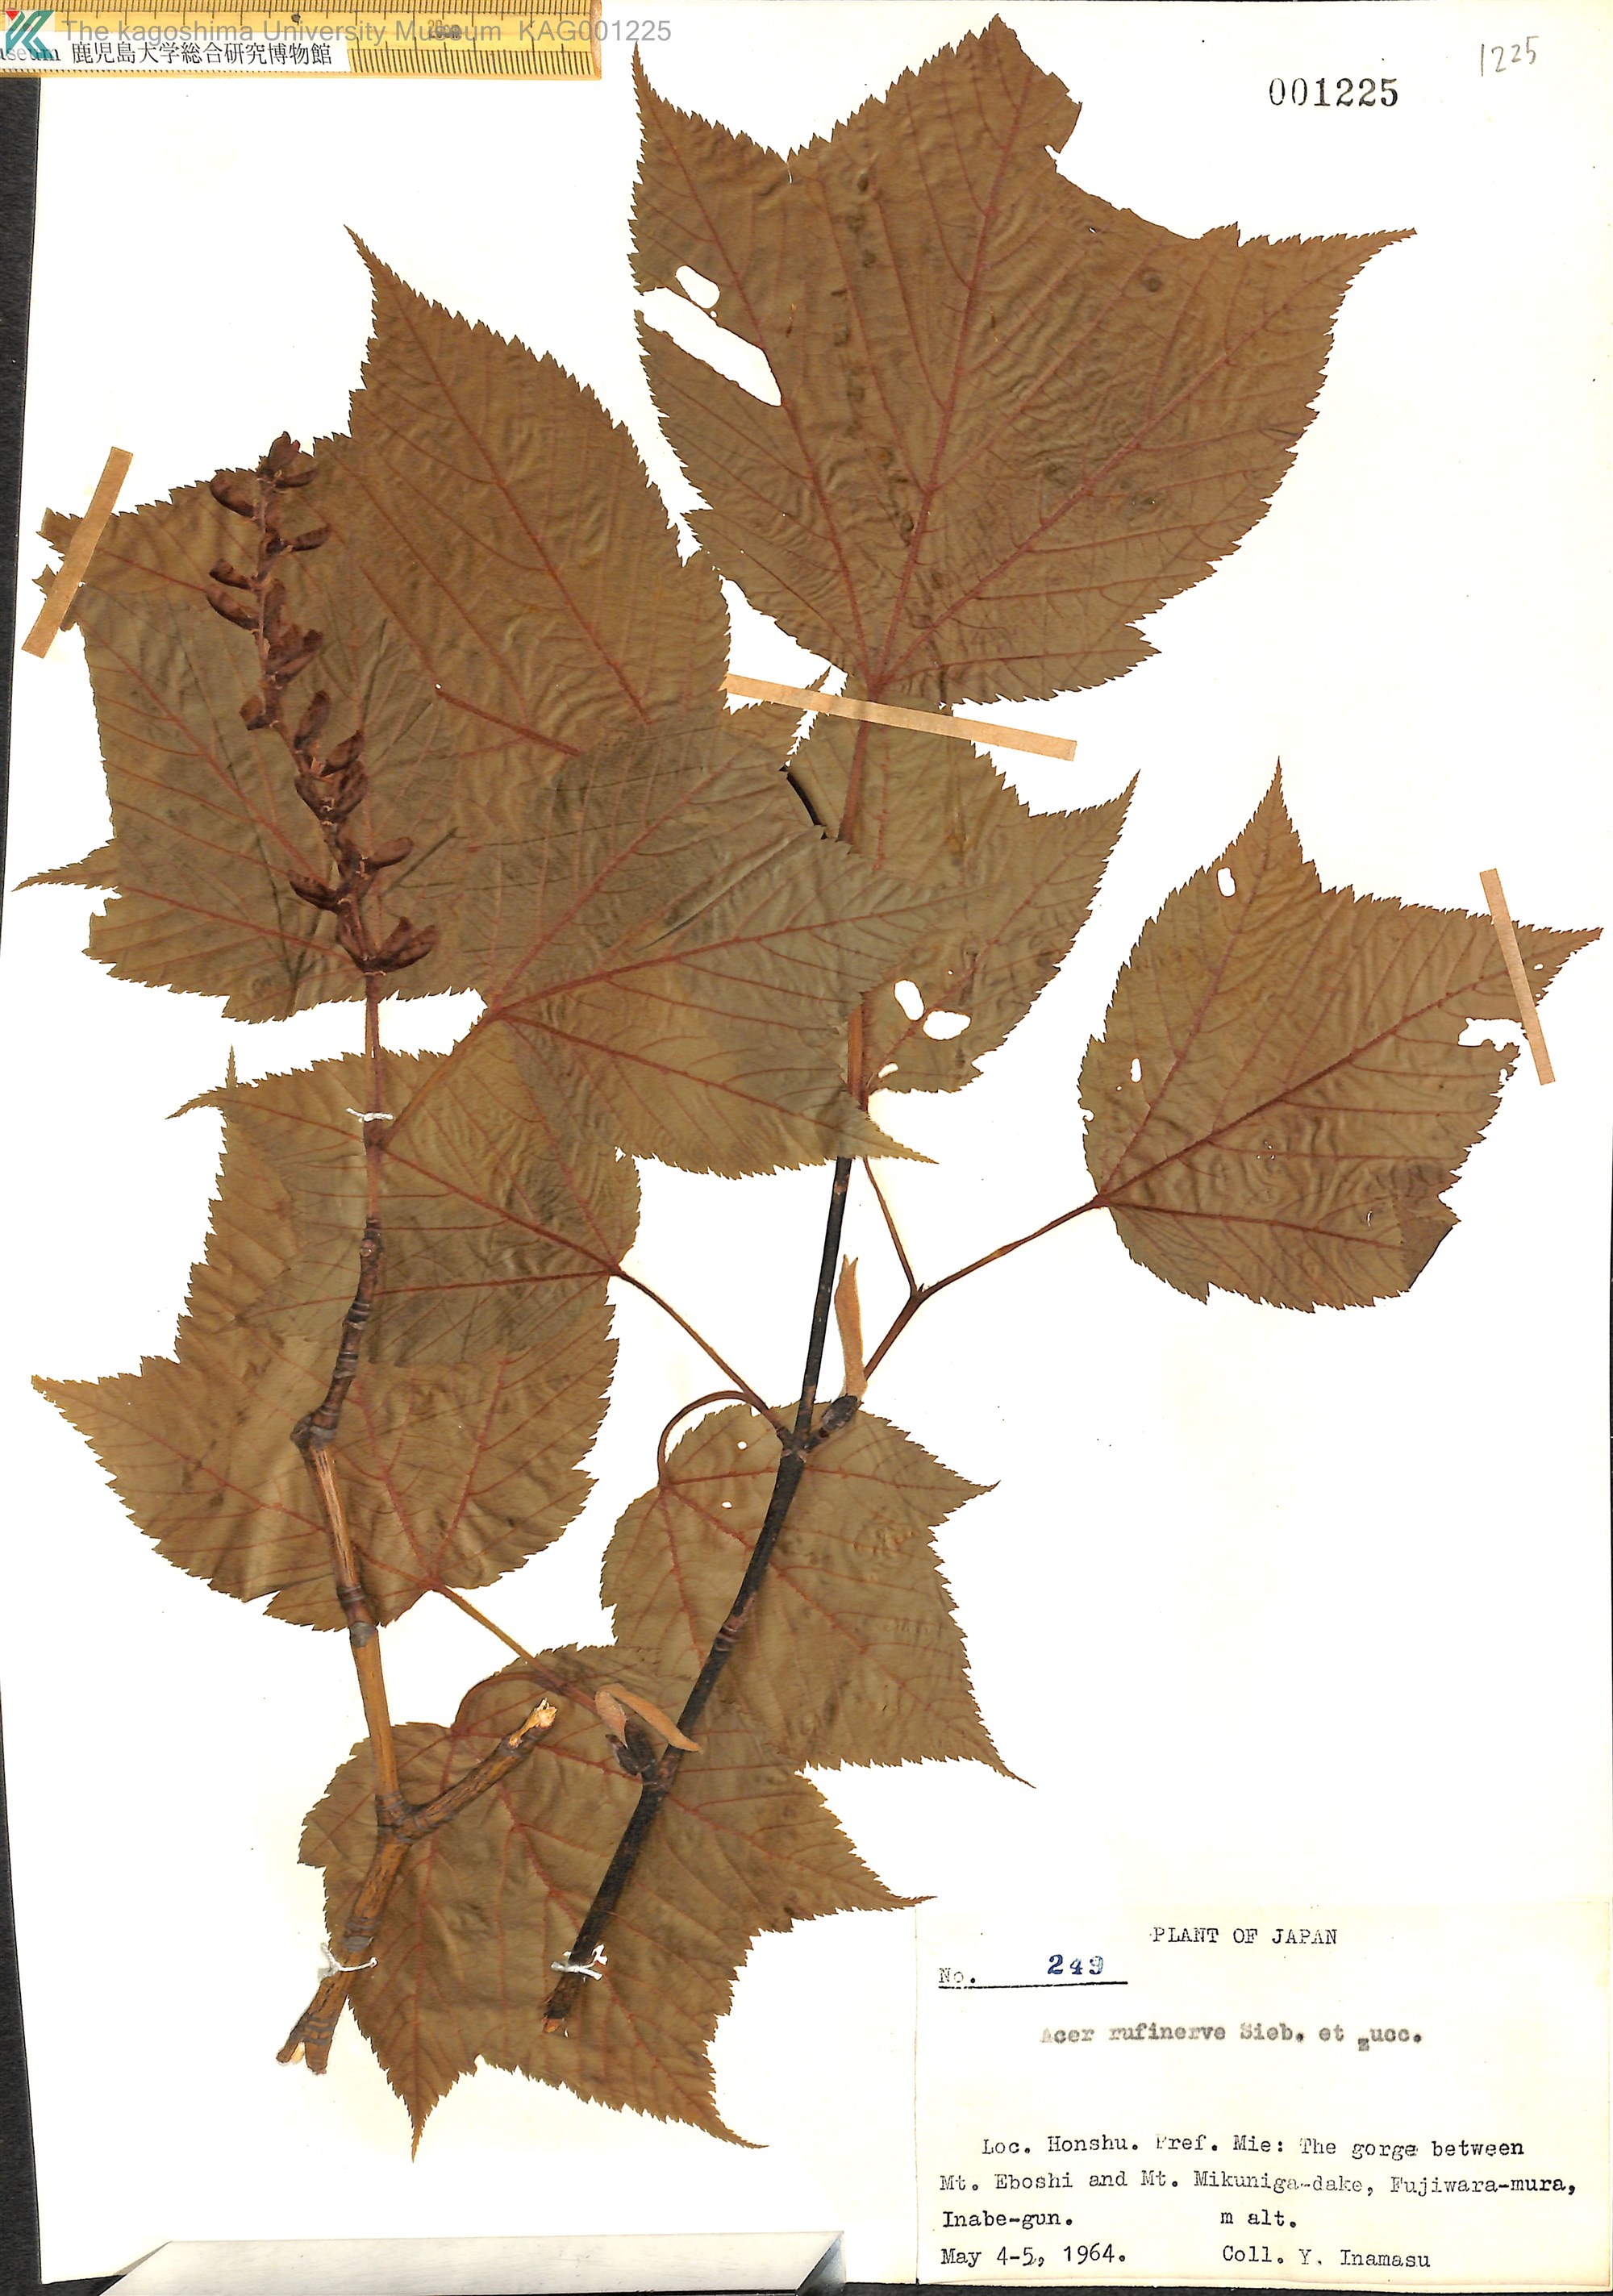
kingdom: Plantae
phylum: Tracheophyta
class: Magnoliopsida
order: Sapindales
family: Sapindaceae
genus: Acer
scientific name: Acer rufinerve
